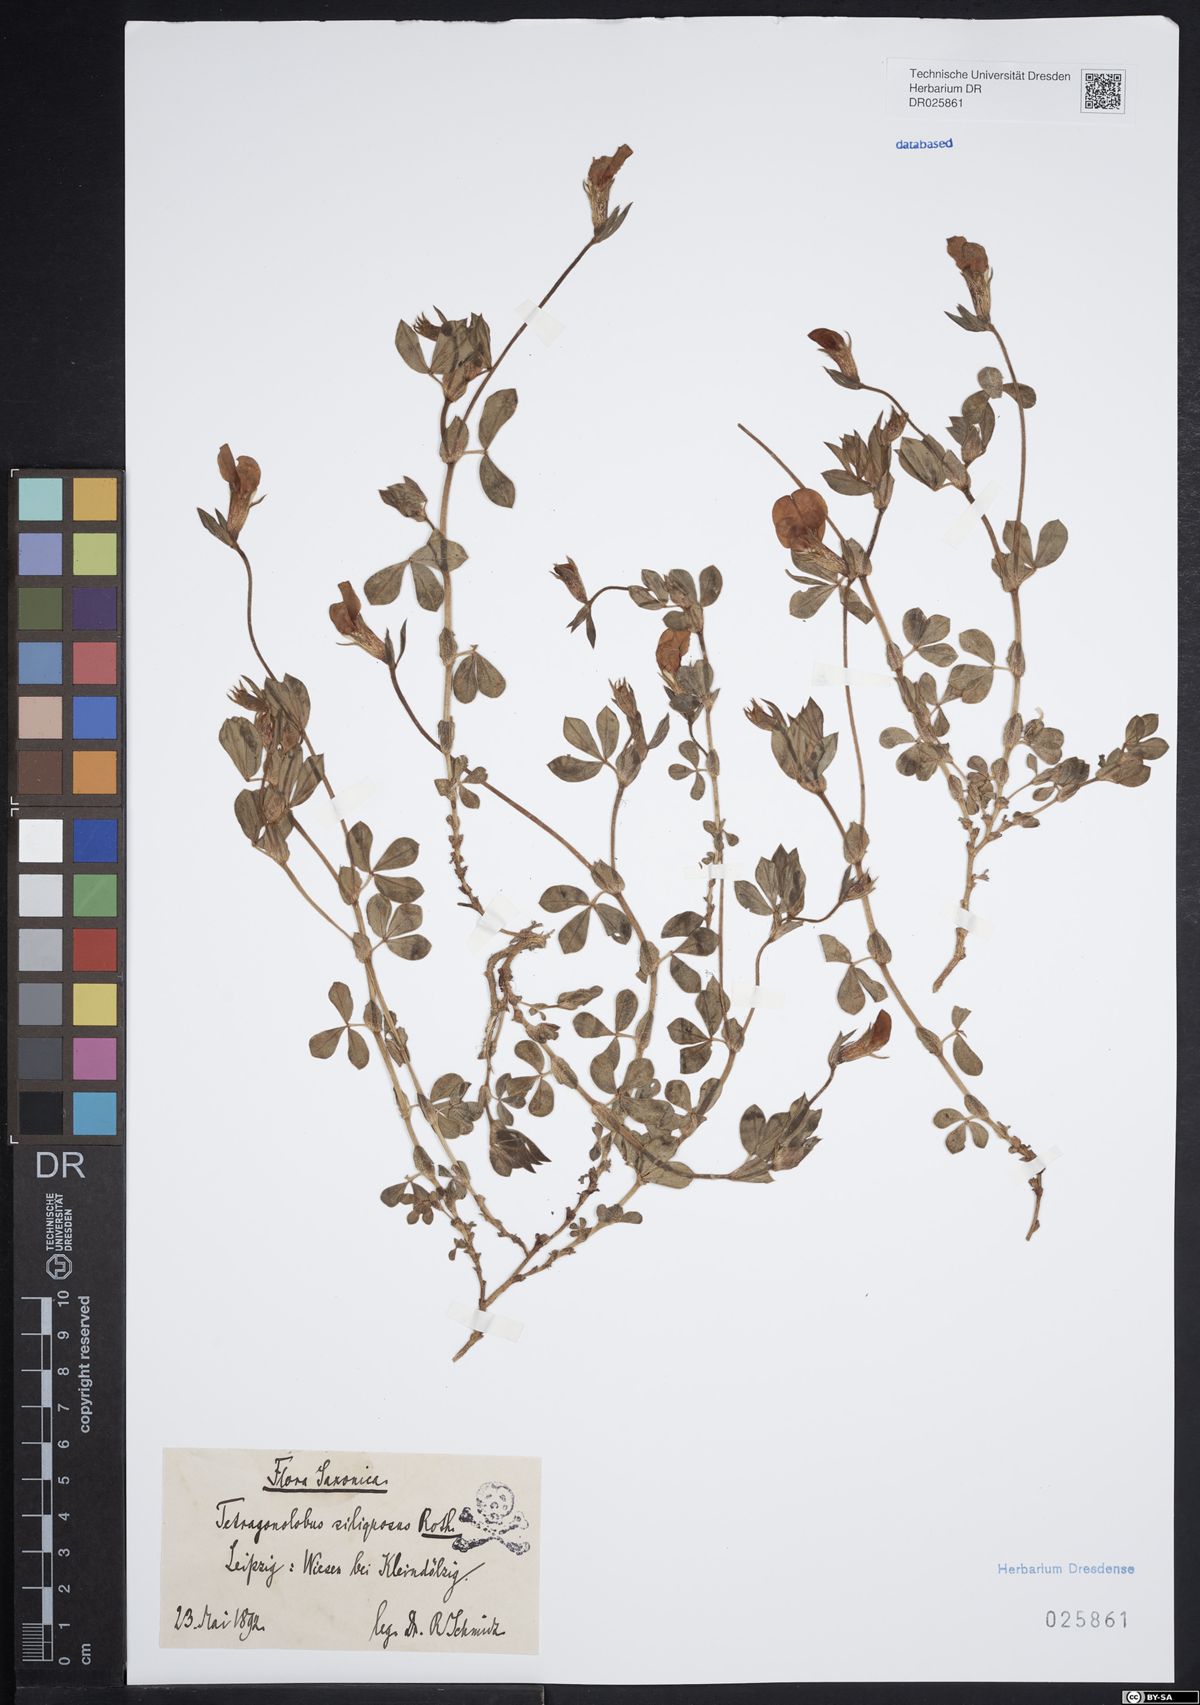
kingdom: Plantae
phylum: Tracheophyta
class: Magnoliopsida
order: Fabales
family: Fabaceae
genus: Lotus
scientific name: Lotus maritimus
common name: Dragon's-teeth
